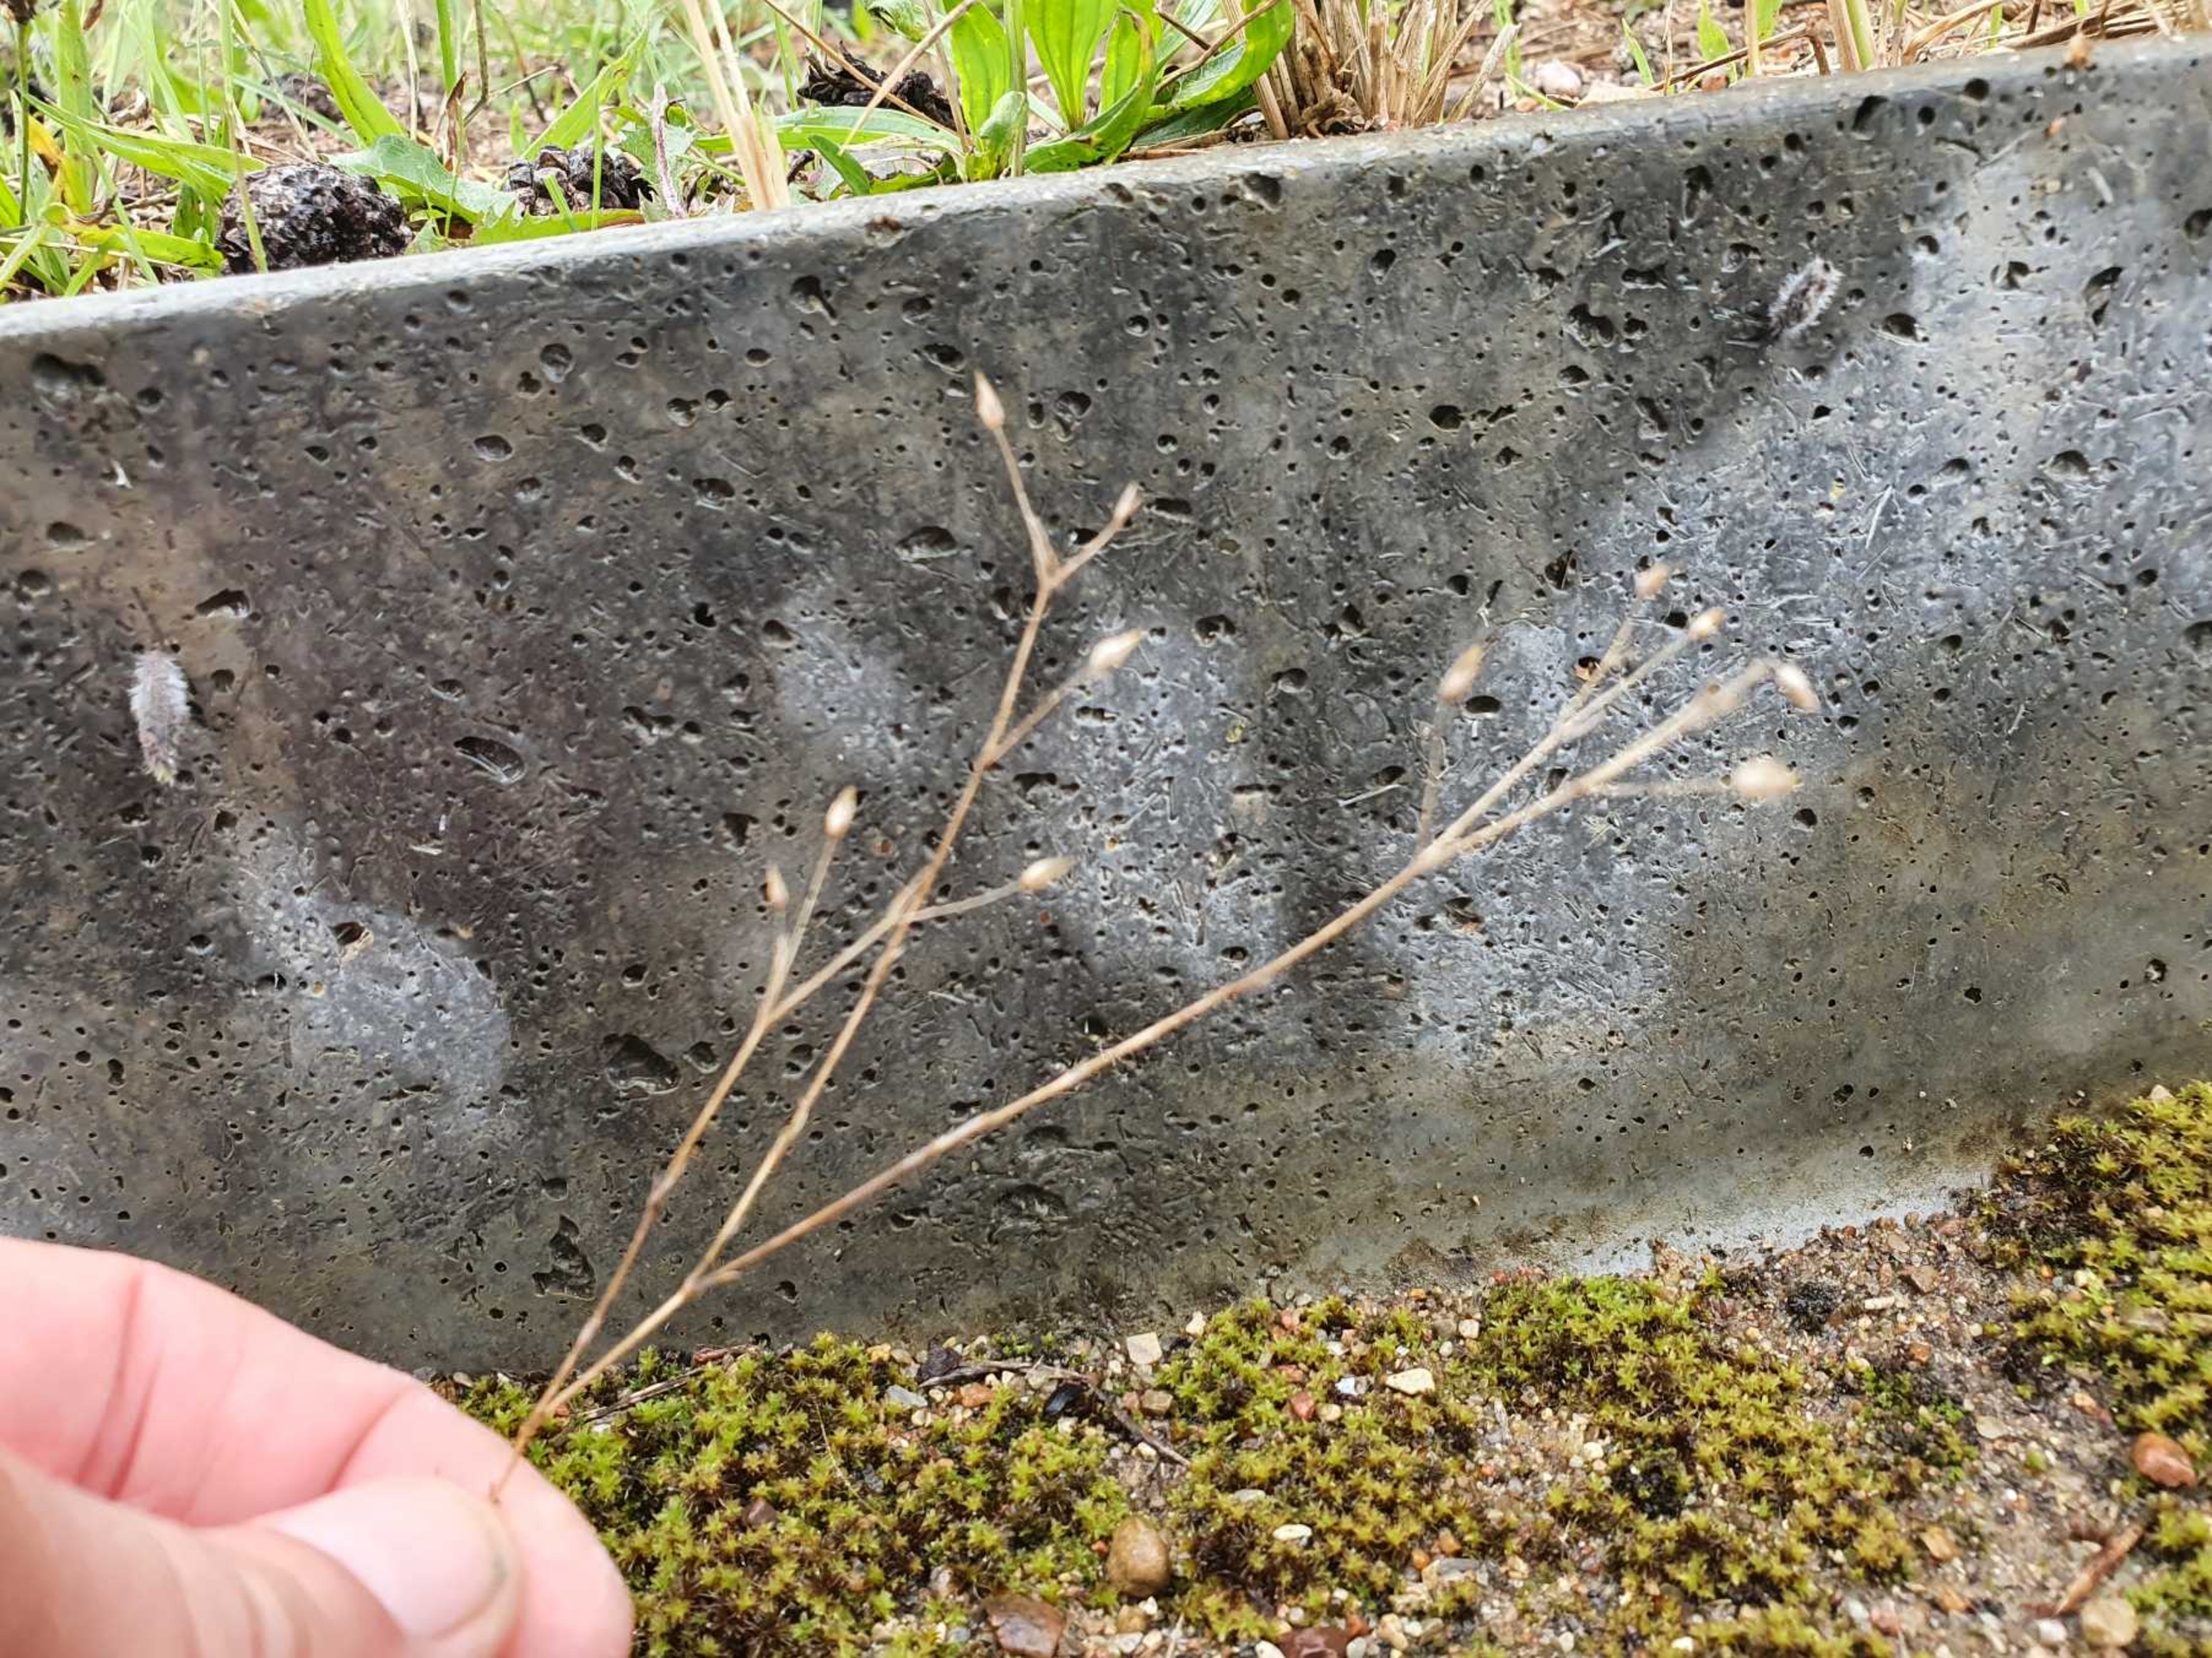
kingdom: Plantae
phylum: Tracheophyta
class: Magnoliopsida
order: Caryophyllales
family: Caryophyllaceae
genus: Sabulina
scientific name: Sabulina tenuifolia
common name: Finbladet norel
